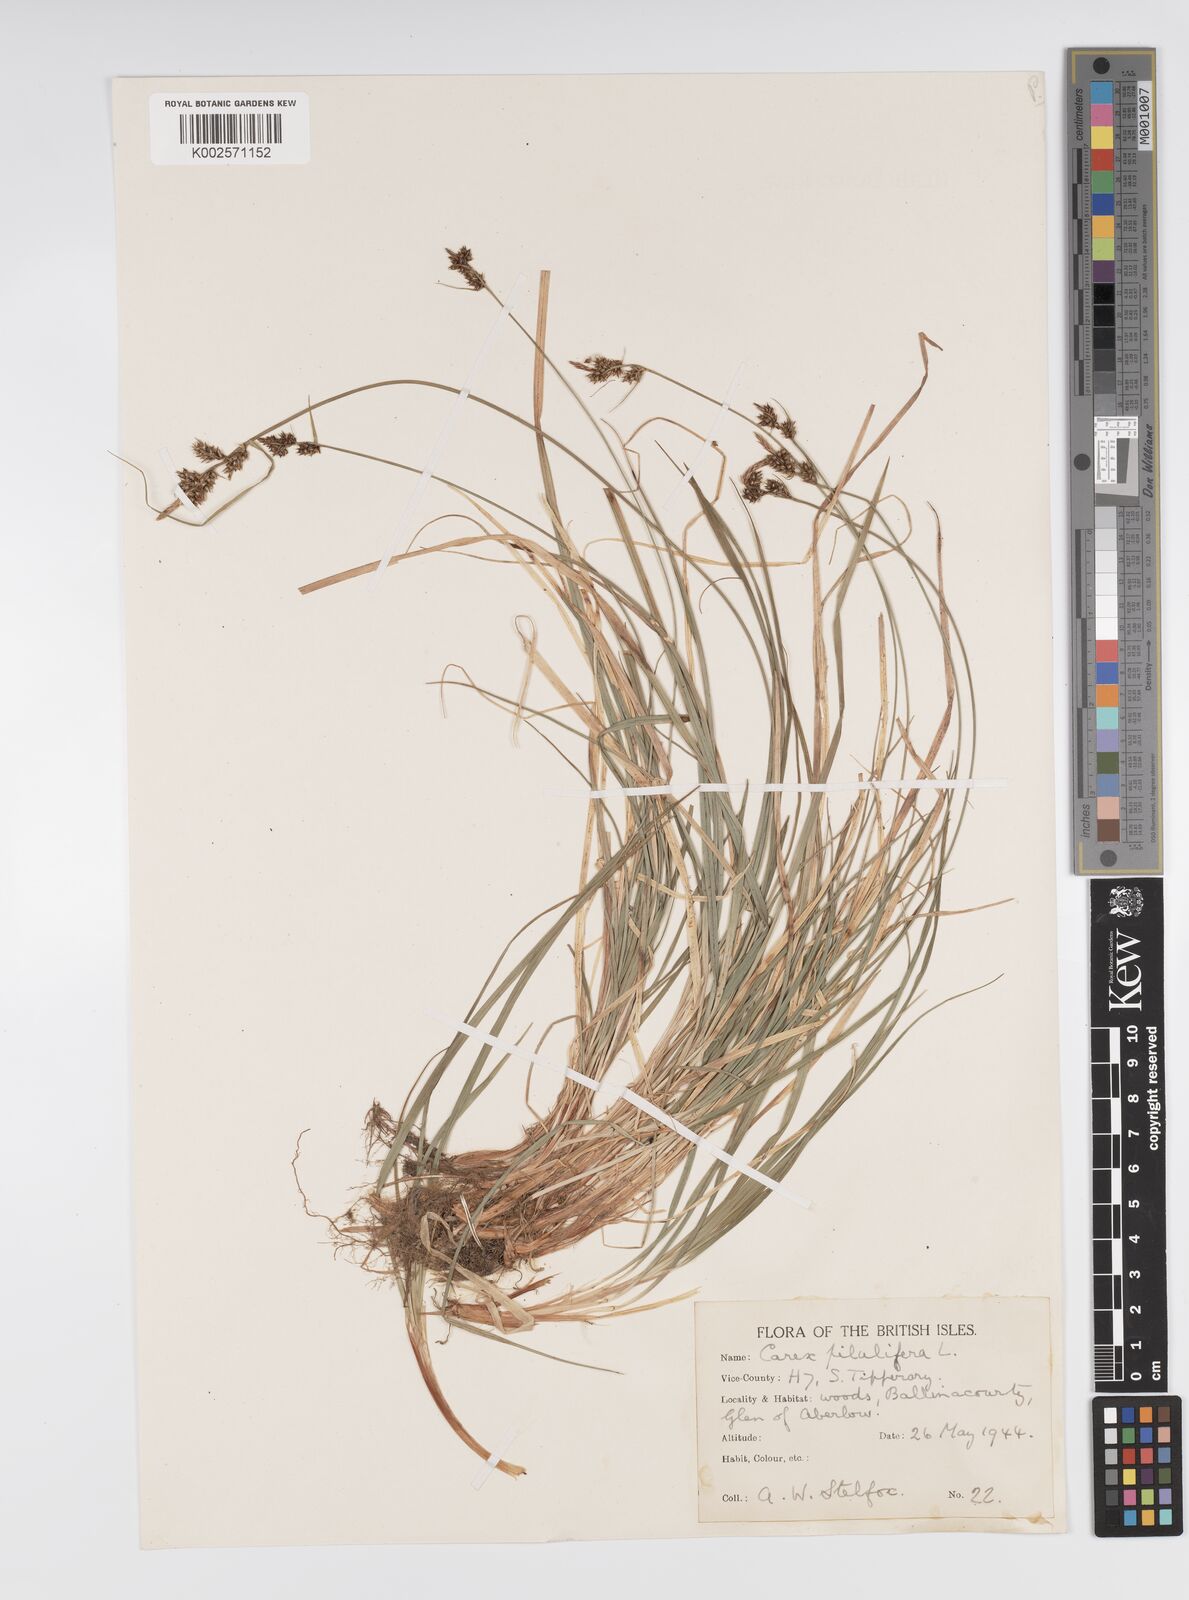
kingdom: Plantae
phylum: Tracheophyta
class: Liliopsida
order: Poales
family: Cyperaceae
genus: Carex
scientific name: Carex pilulifera
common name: Pill sedge
